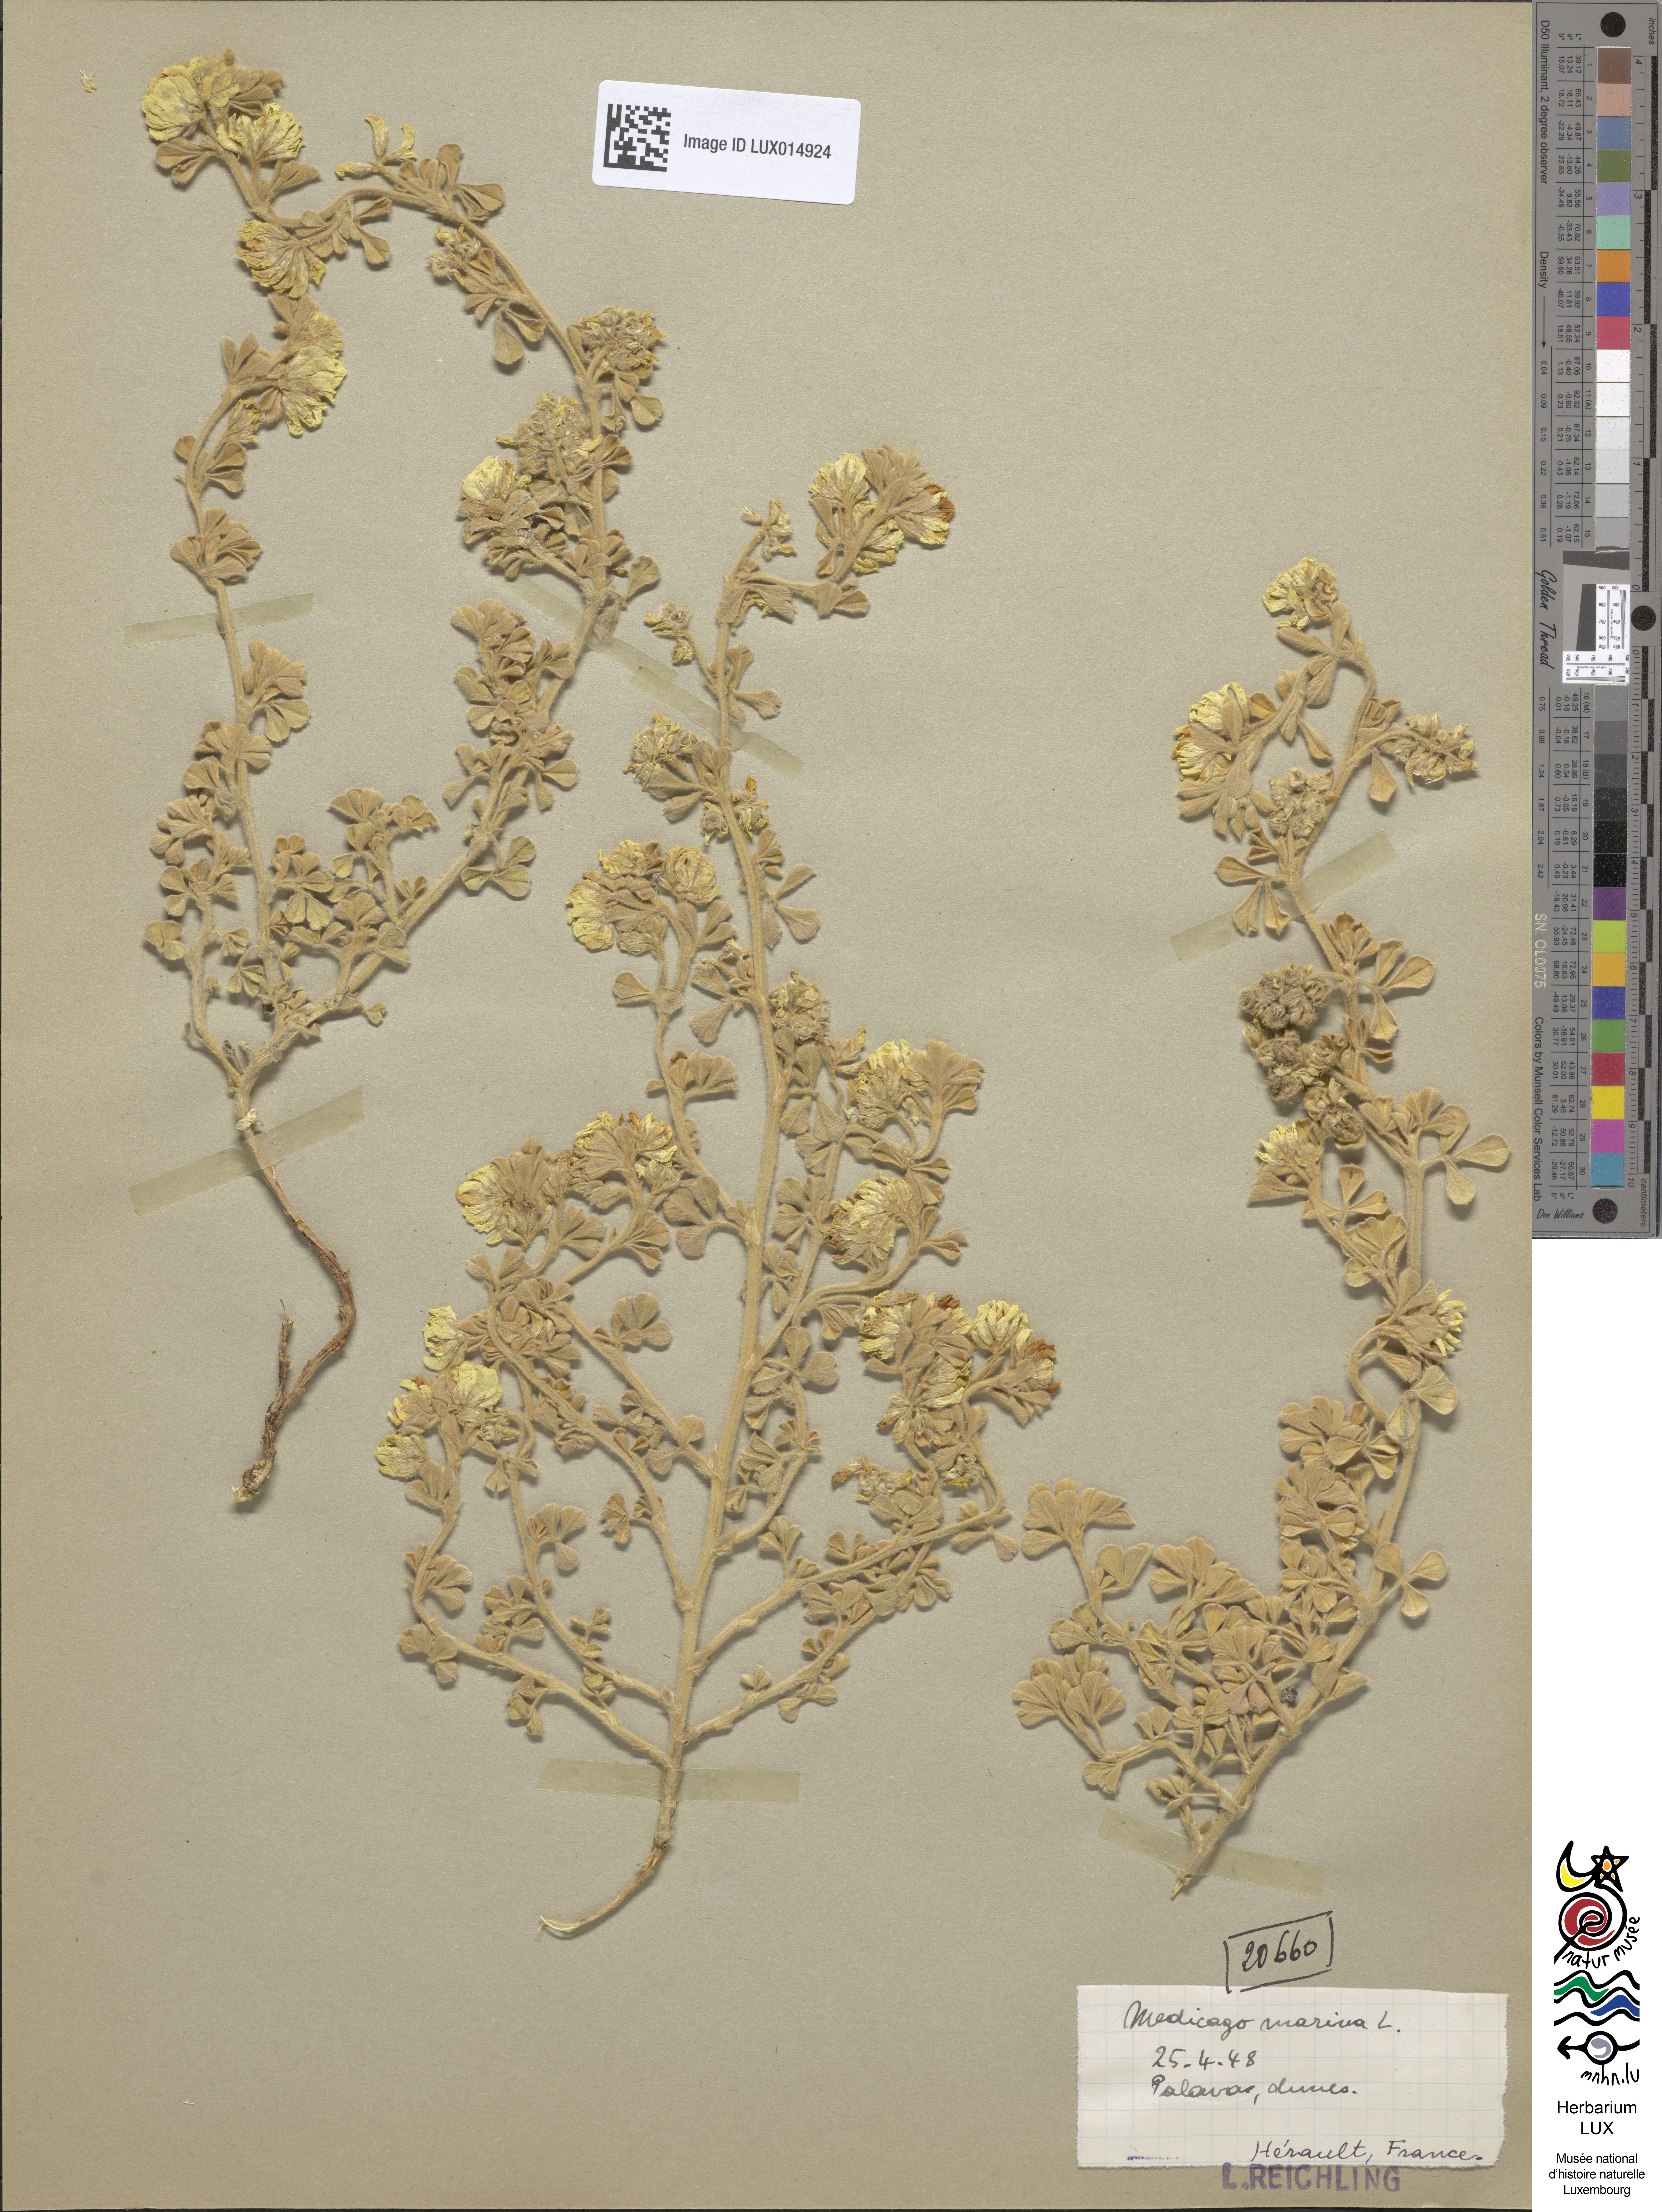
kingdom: Plantae
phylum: Tracheophyta
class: Magnoliopsida
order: Fabales
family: Fabaceae
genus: Medicago
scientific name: Medicago marina
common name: Sea medick
